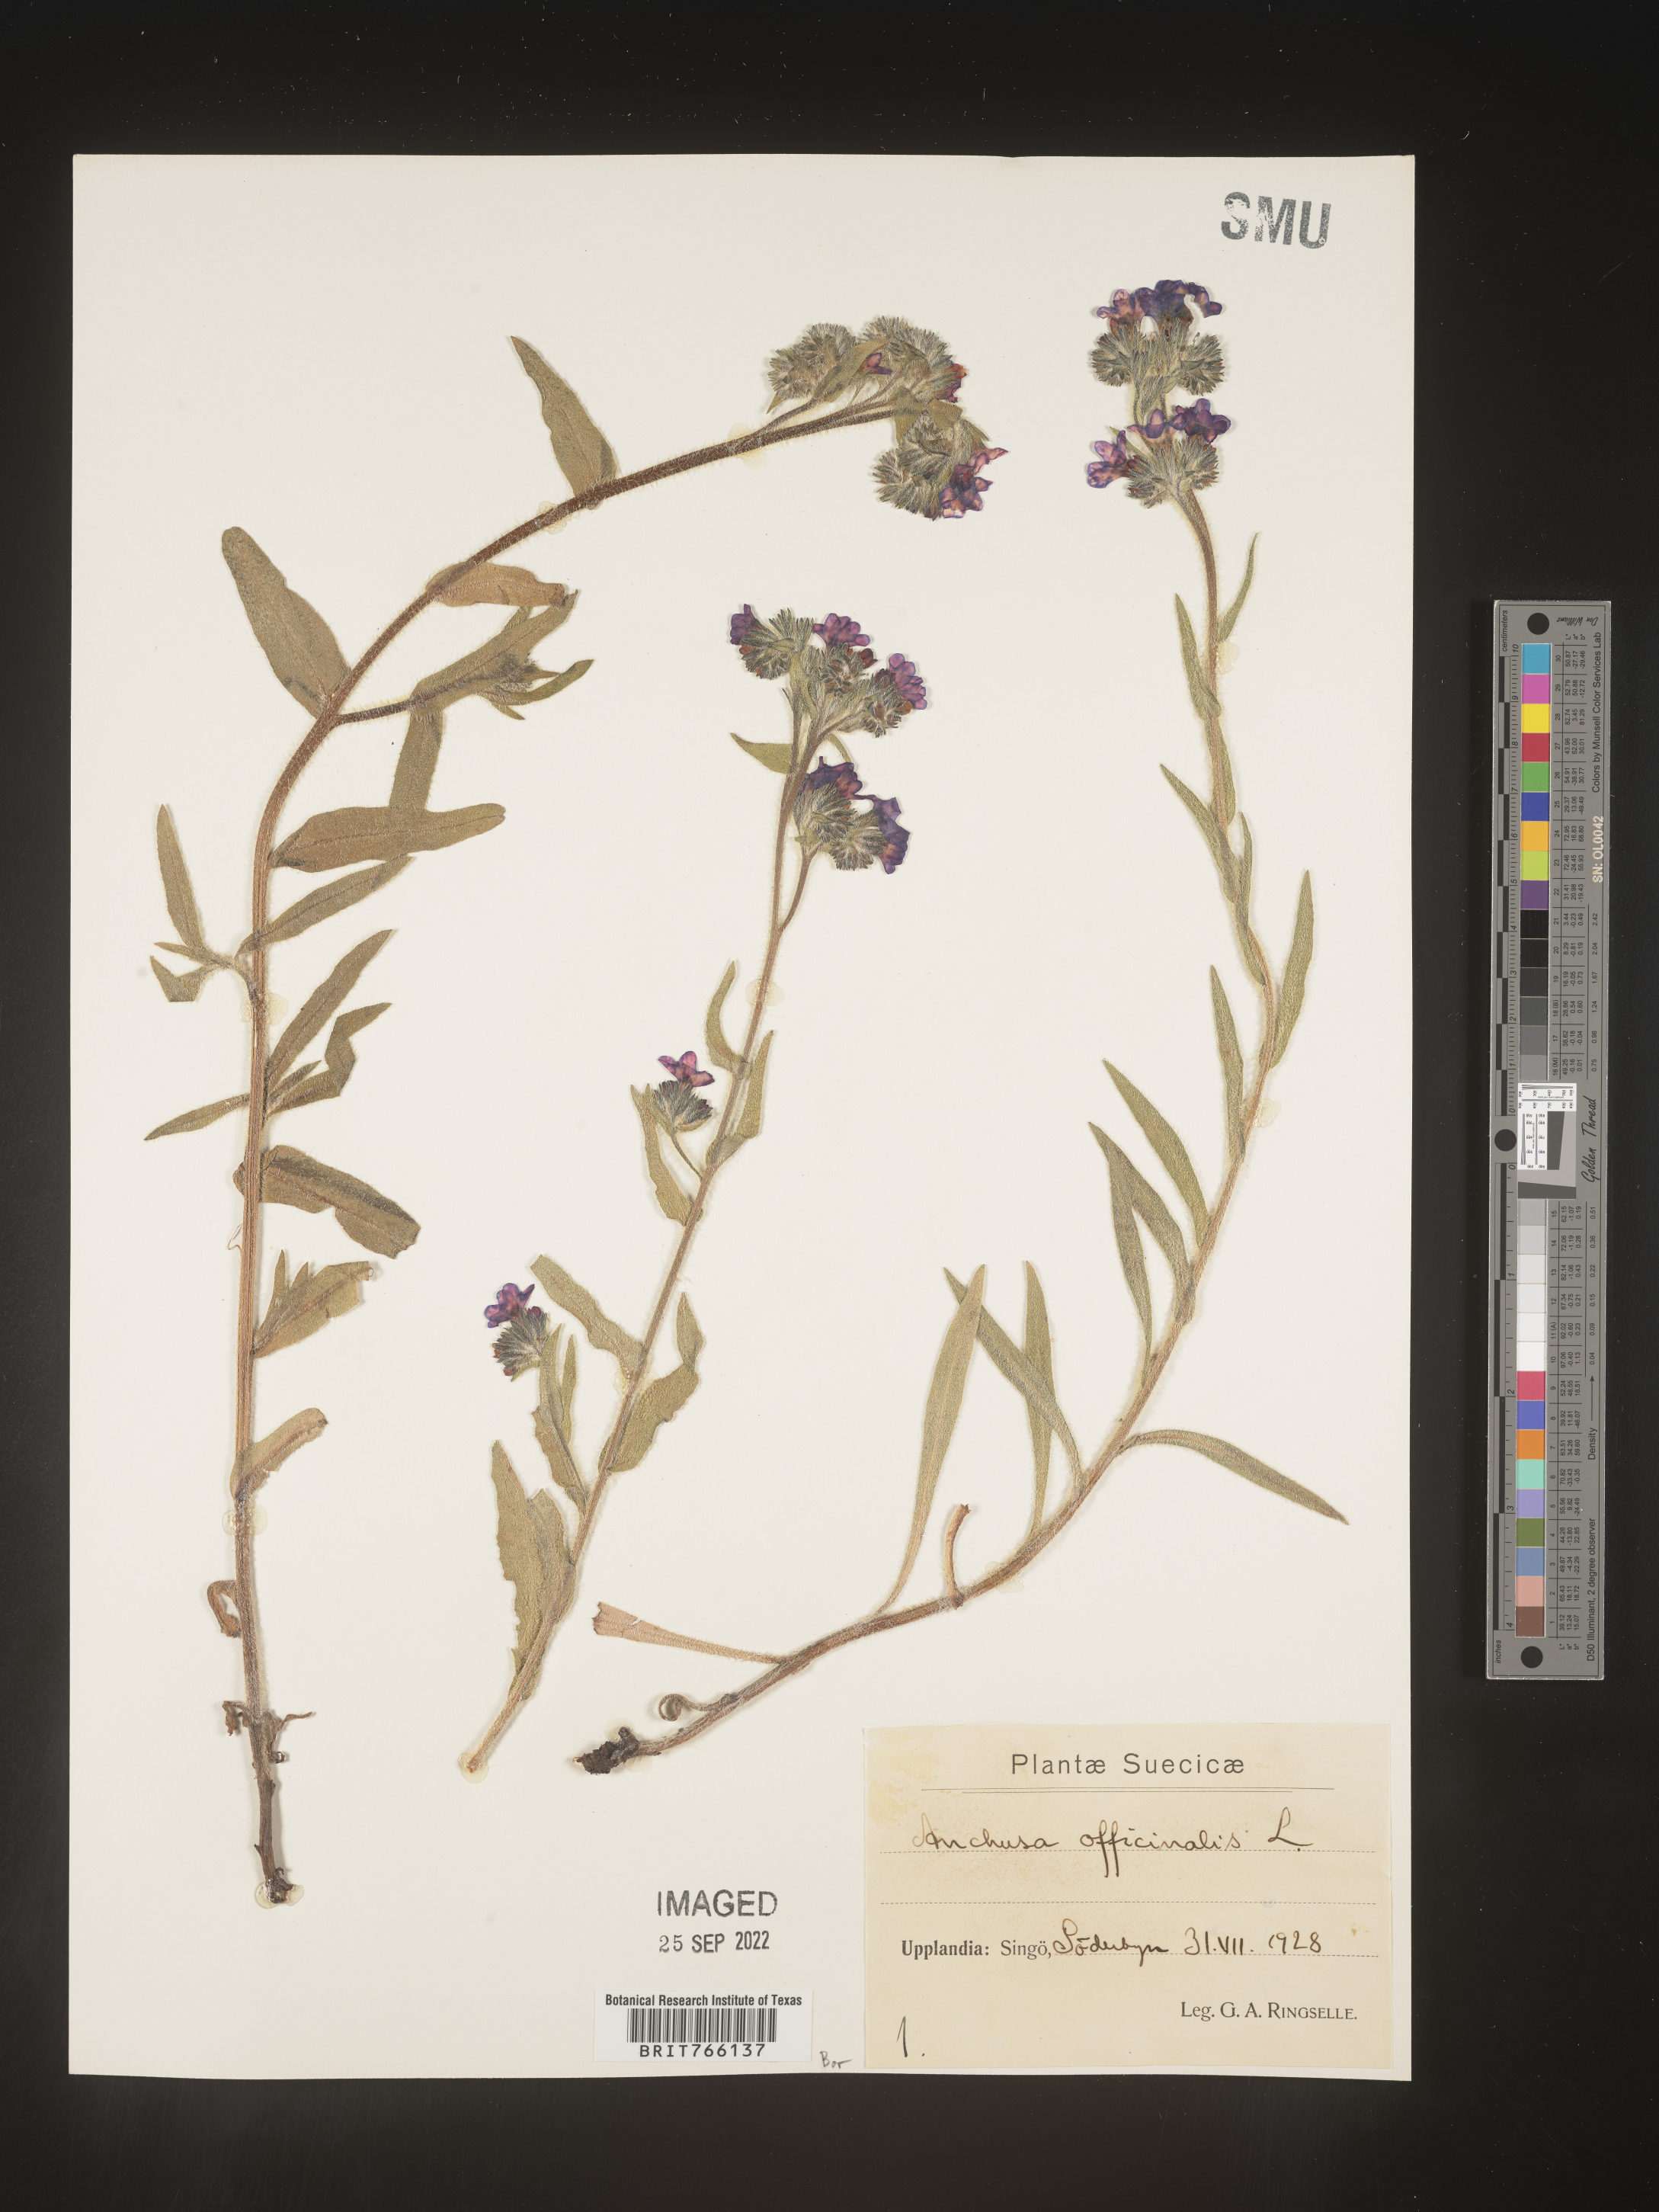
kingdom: Plantae
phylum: Tracheophyta
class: Magnoliopsida
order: Boraginales
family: Boraginaceae
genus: Anchusa
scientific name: Anchusa
